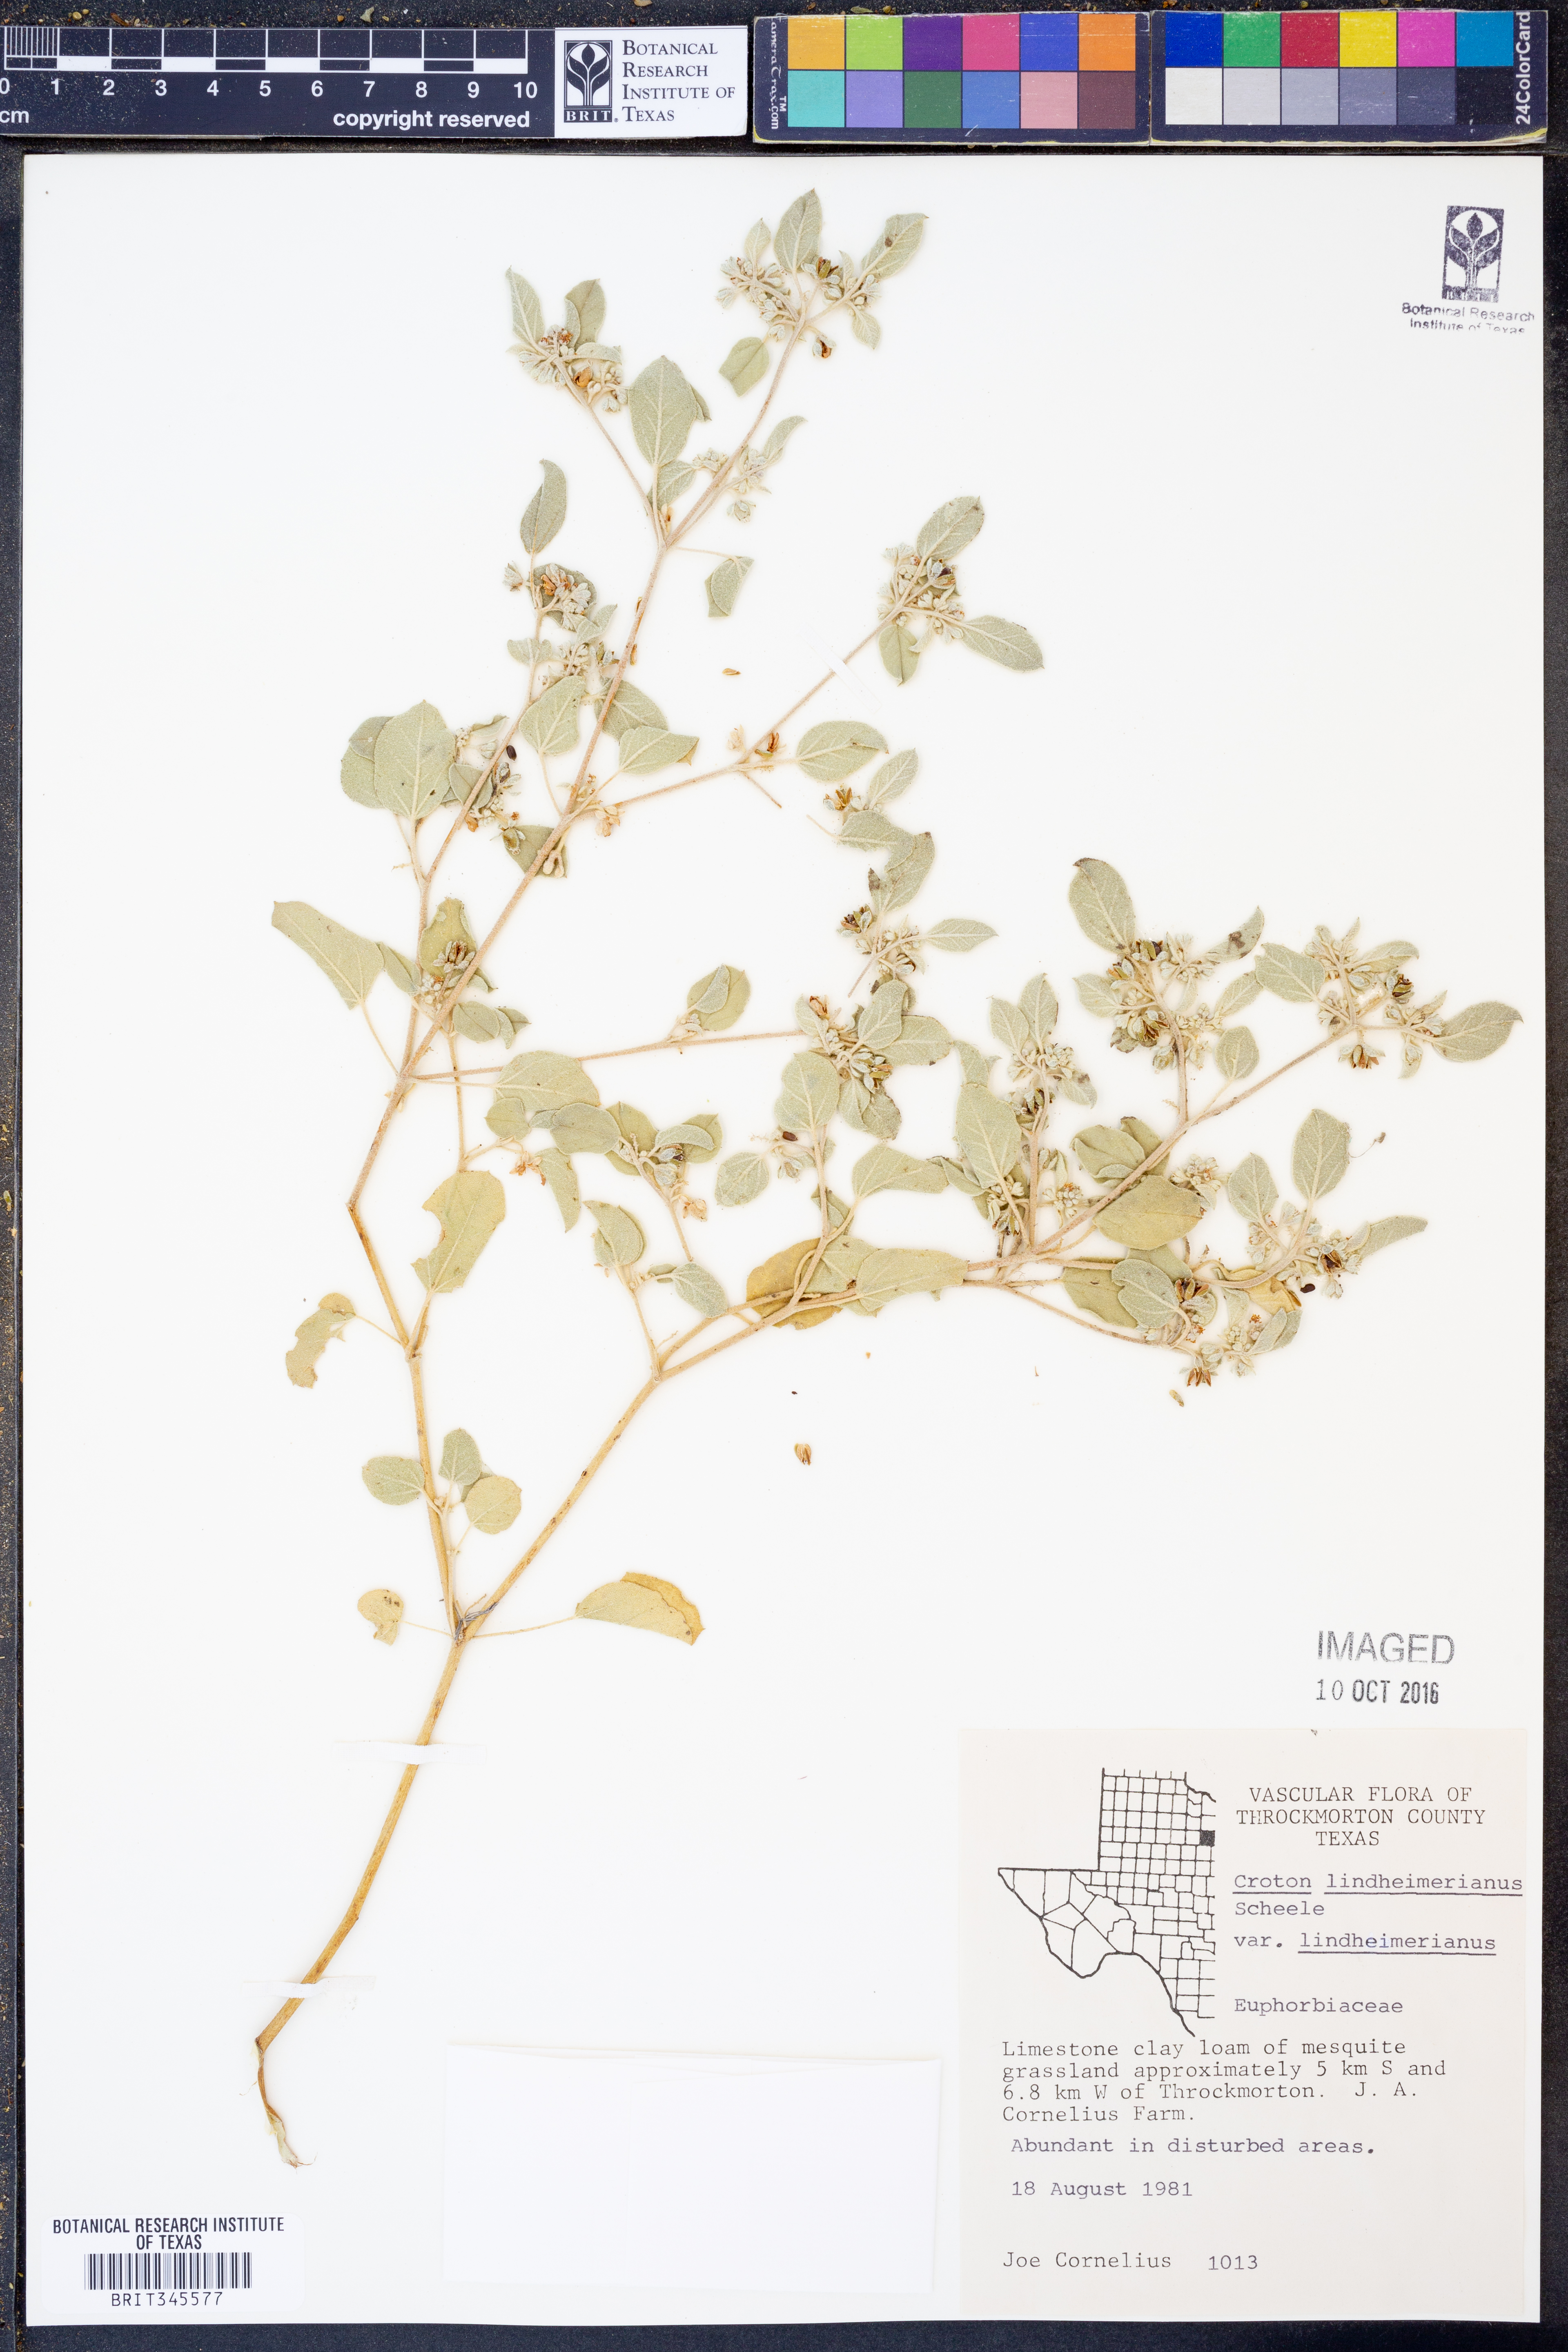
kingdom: Plantae
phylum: Tracheophyta
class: Magnoliopsida
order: Malpighiales
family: Euphorbiaceae
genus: Croton
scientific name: Croton lindheimerianus
